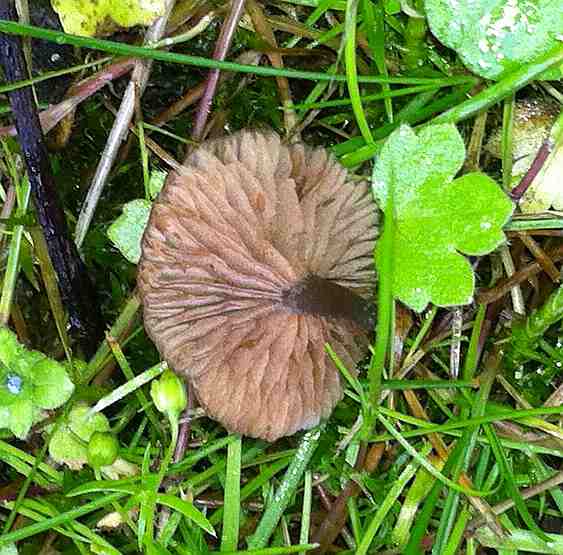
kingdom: Fungi
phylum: Basidiomycota
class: Agaricomycetes
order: Agaricales
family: Entolomataceae
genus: Entoloma
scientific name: Entoloma incarnatofuscescens
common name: tragt-rødblad
